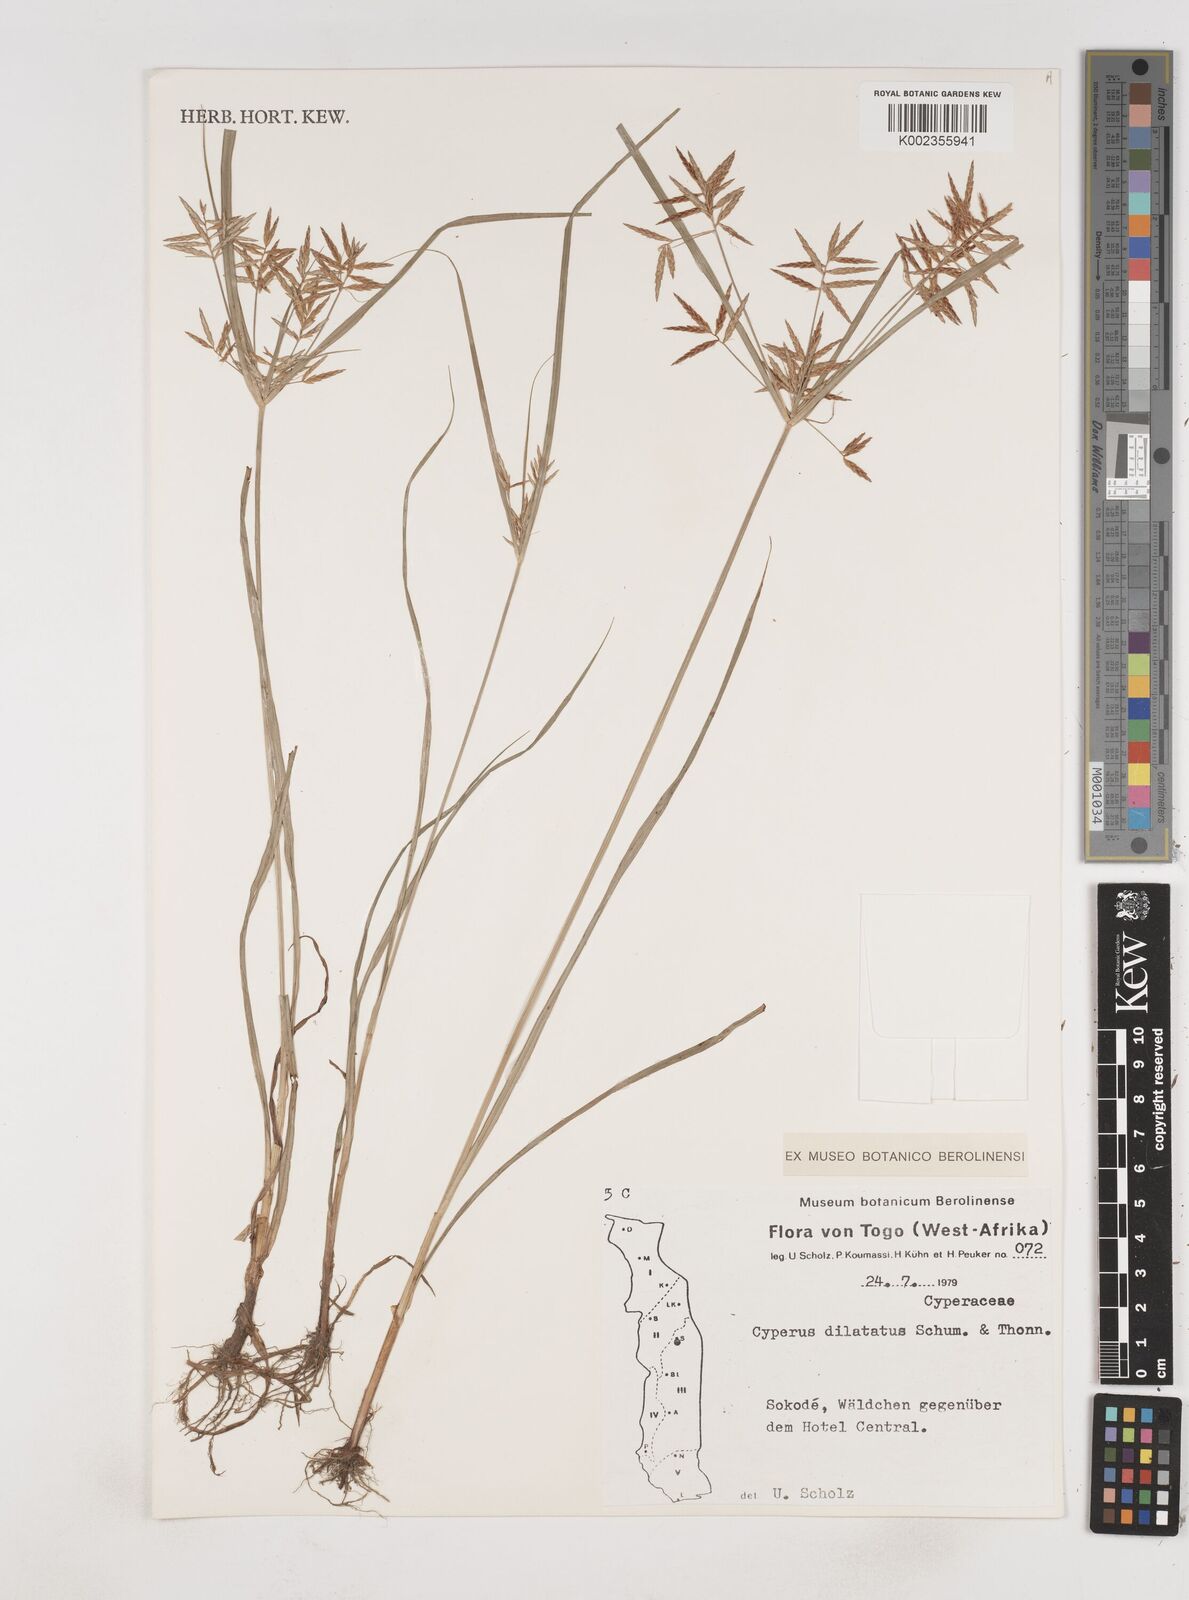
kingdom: Plantae
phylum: Tracheophyta
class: Liliopsida
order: Poales
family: Cyperaceae
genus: Cyperus
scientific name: Cyperus dilatatus
